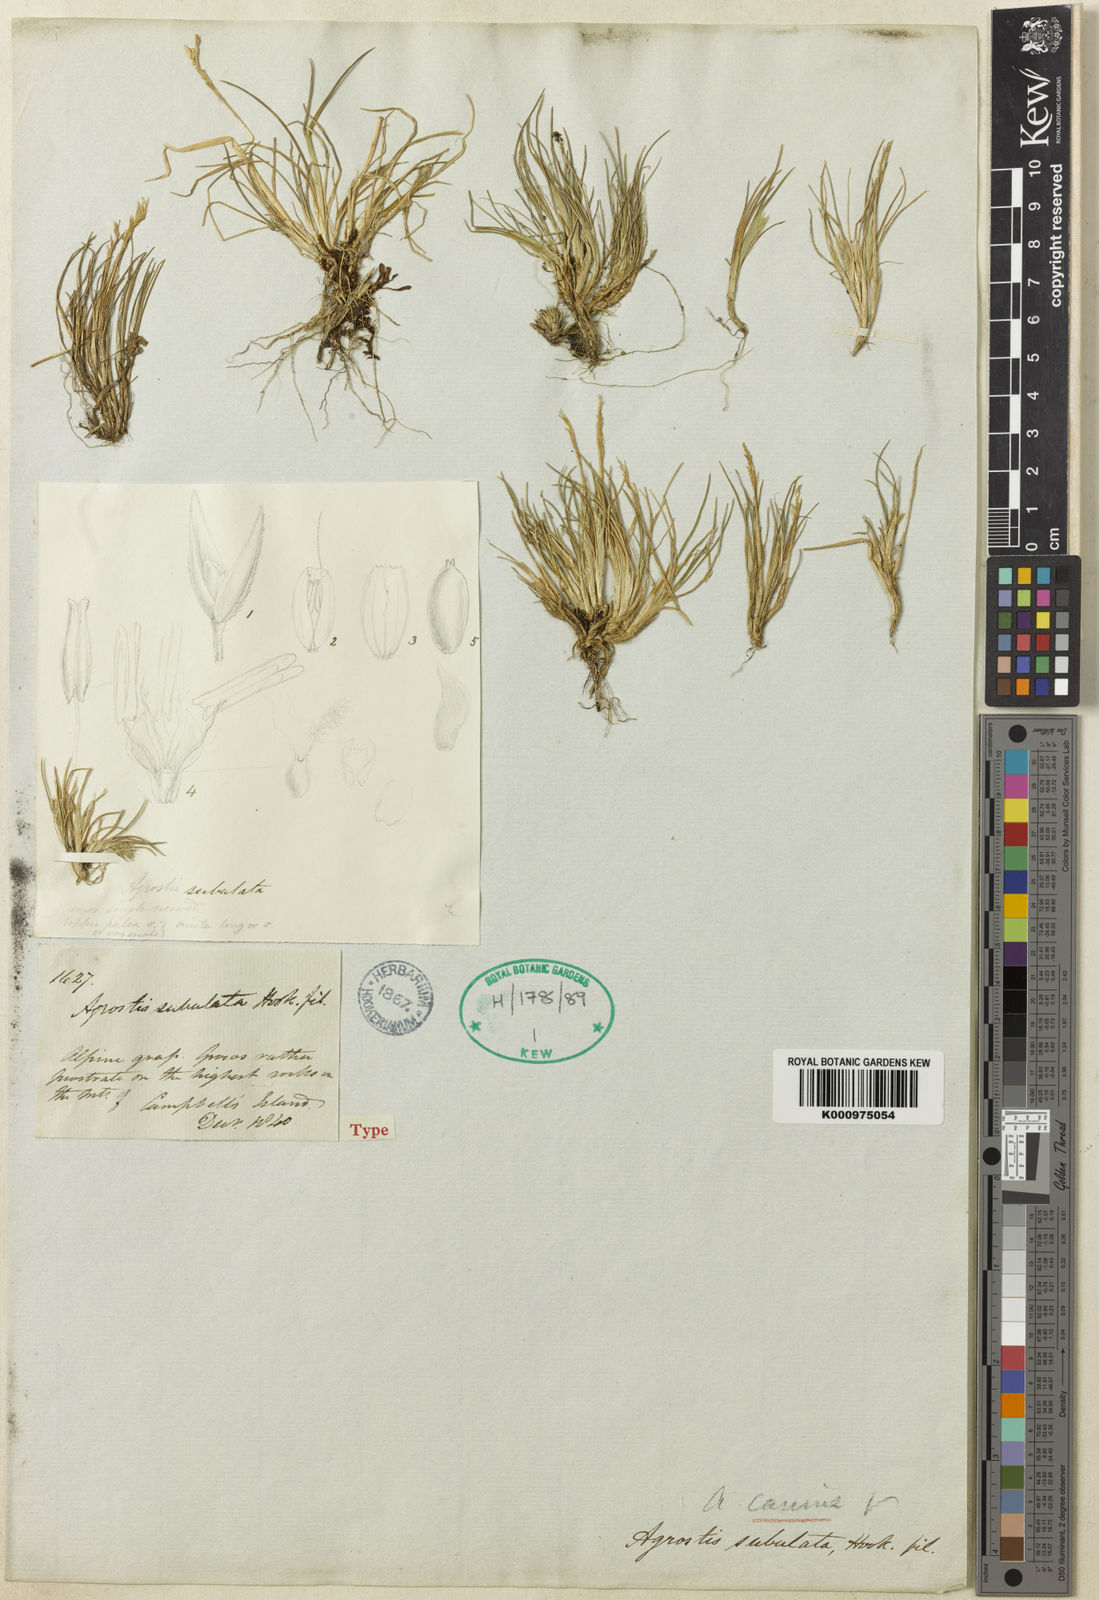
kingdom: Plantae
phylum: Tracheophyta
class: Liliopsida
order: Poales
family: Poaceae
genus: Agrostis
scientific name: Agrostis canina
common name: Velvet bent
